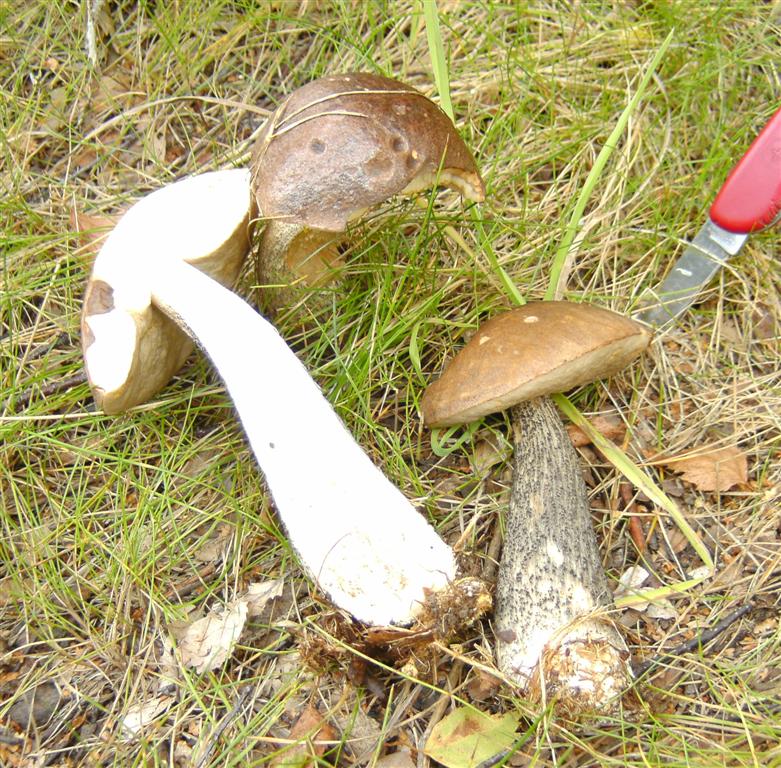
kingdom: Fungi
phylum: Basidiomycota
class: Agaricomycetes
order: Boletales
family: Boletaceae
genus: Leccinum
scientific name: Leccinum scabrum
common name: brun skælrørhat
